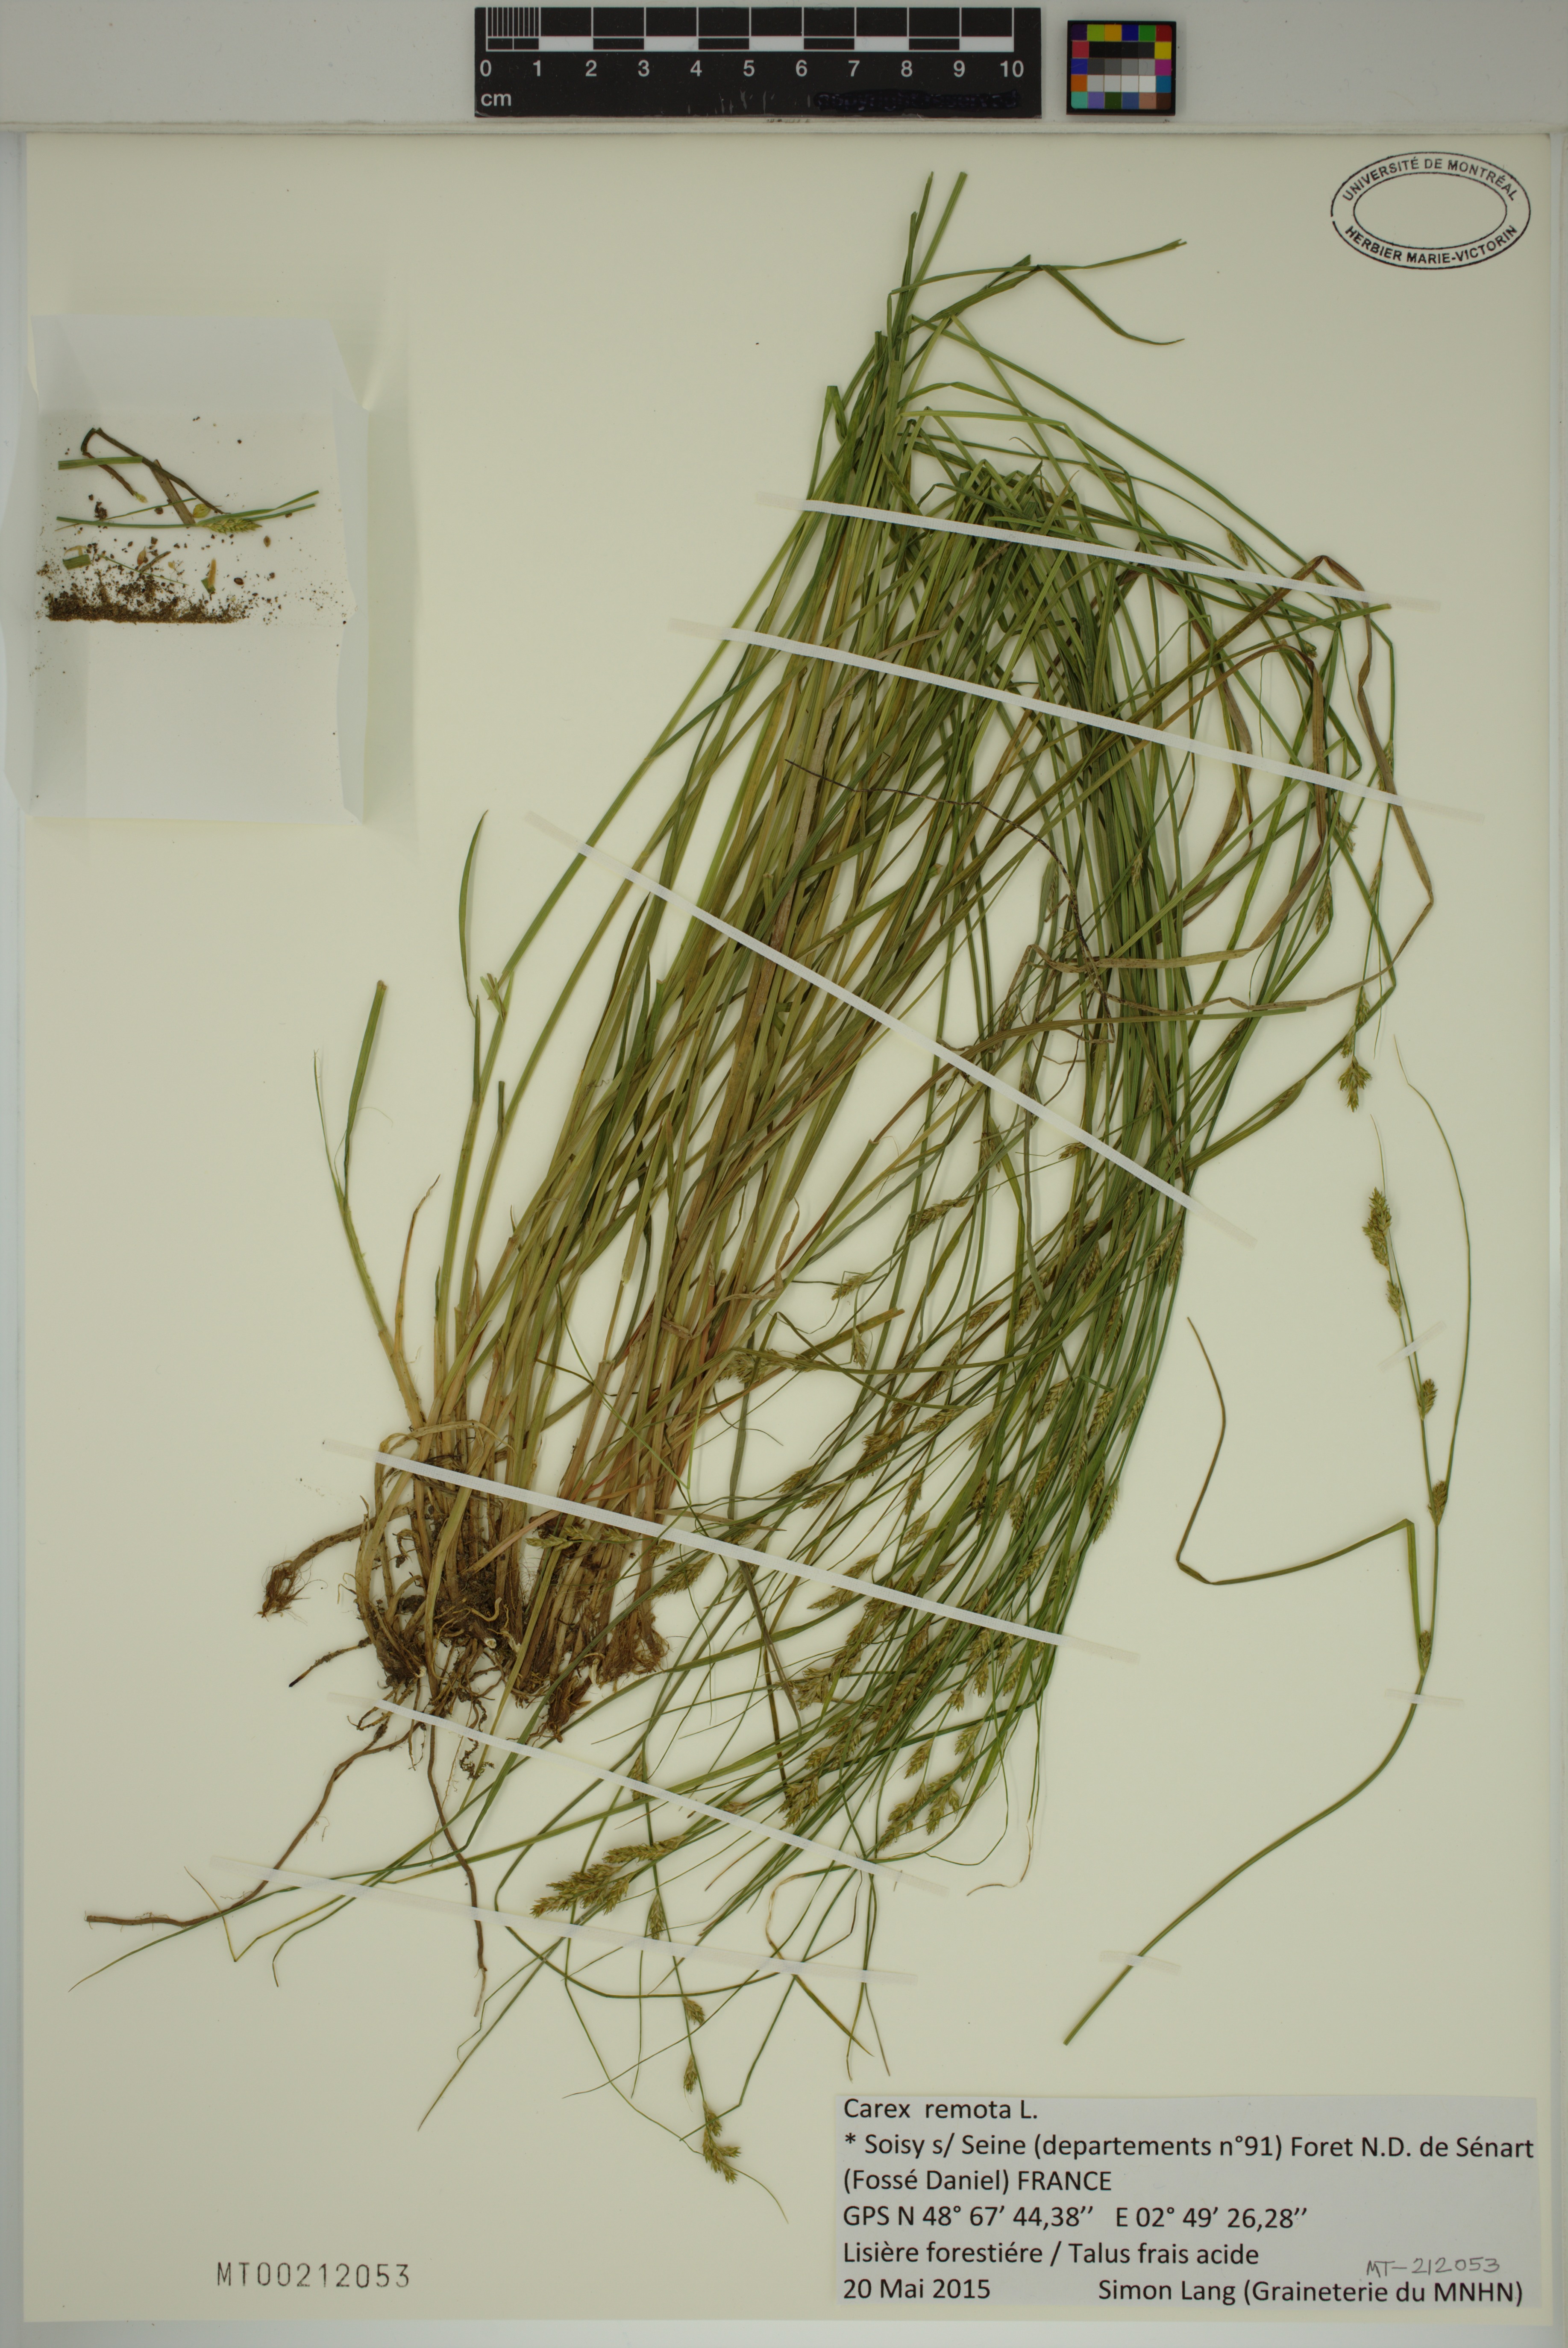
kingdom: Plantae
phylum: Tracheophyta
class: Liliopsida
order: Poales
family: Cyperaceae
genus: Carex
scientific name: Carex remota
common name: Remote sedge
